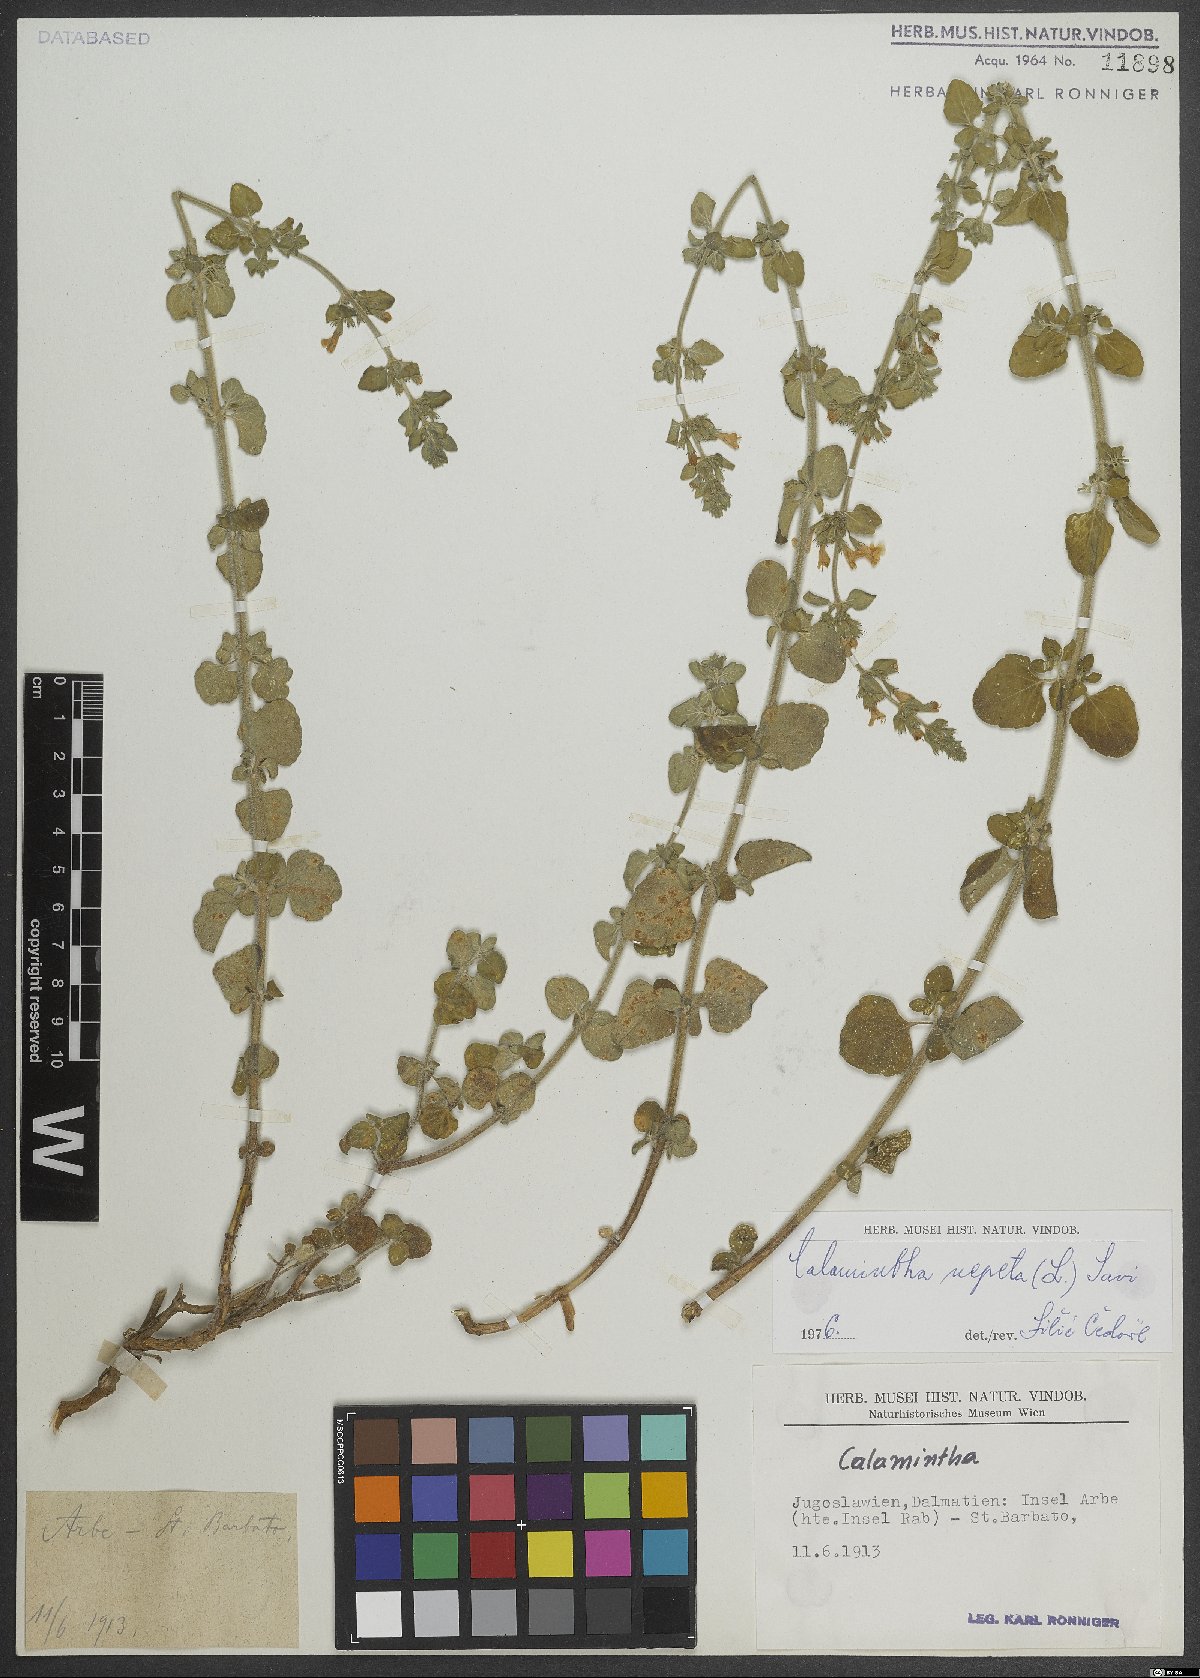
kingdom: Plantae
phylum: Tracheophyta
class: Magnoliopsida
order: Lamiales
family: Lamiaceae
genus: Clinopodium
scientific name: Clinopodium nepeta
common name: Lesser calamint
